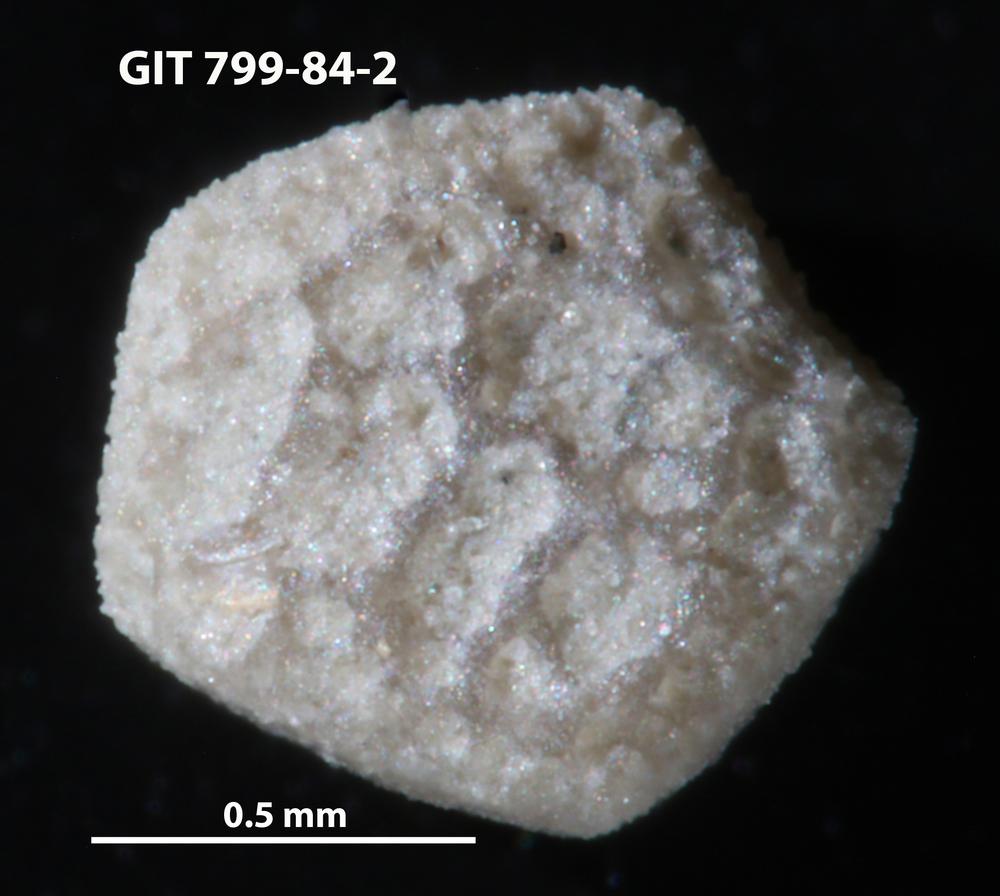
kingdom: Animalia
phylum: Echinodermata
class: Echinoidea
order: Bothriocidaroida
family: Bothriocidaridae
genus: Neobothriocidaris
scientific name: Neobothriocidaris
